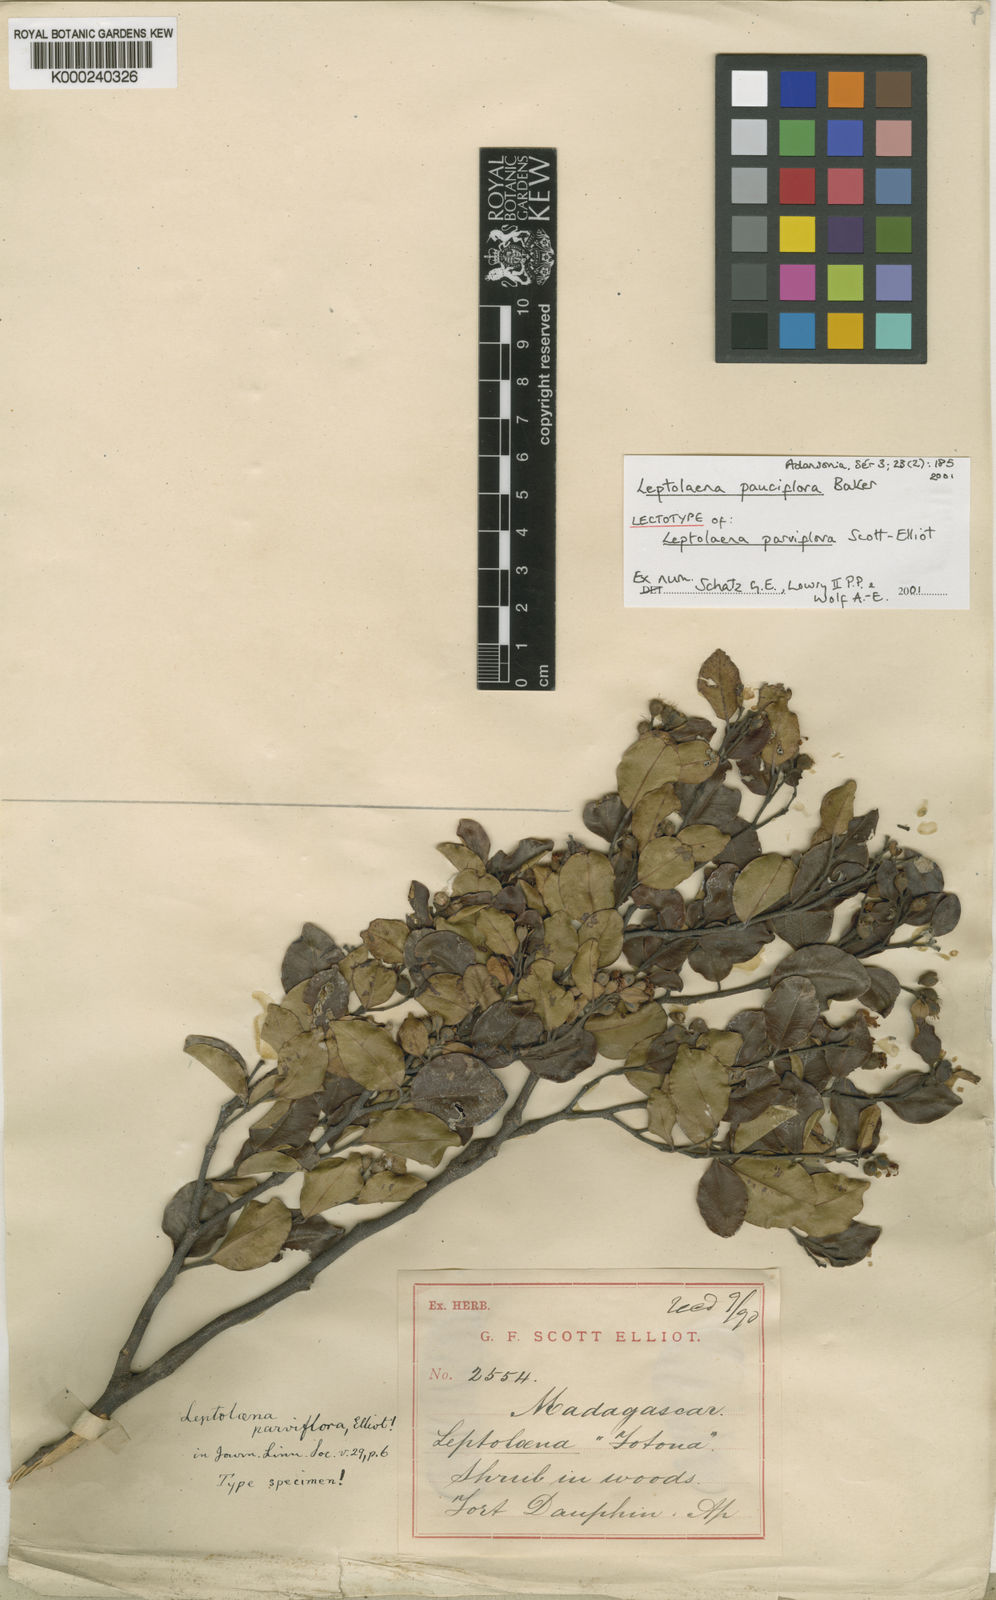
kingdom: Plantae
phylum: Tracheophyta
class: Magnoliopsida
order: Malvales
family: Sarcolaenaceae
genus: Leptolaena
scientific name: Leptolaena pauciflora
